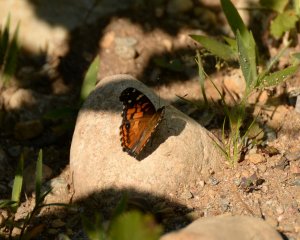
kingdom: Animalia
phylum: Arthropoda
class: Insecta
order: Lepidoptera
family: Nymphalidae
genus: Vanessa
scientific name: Vanessa virginiensis
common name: American Lady
